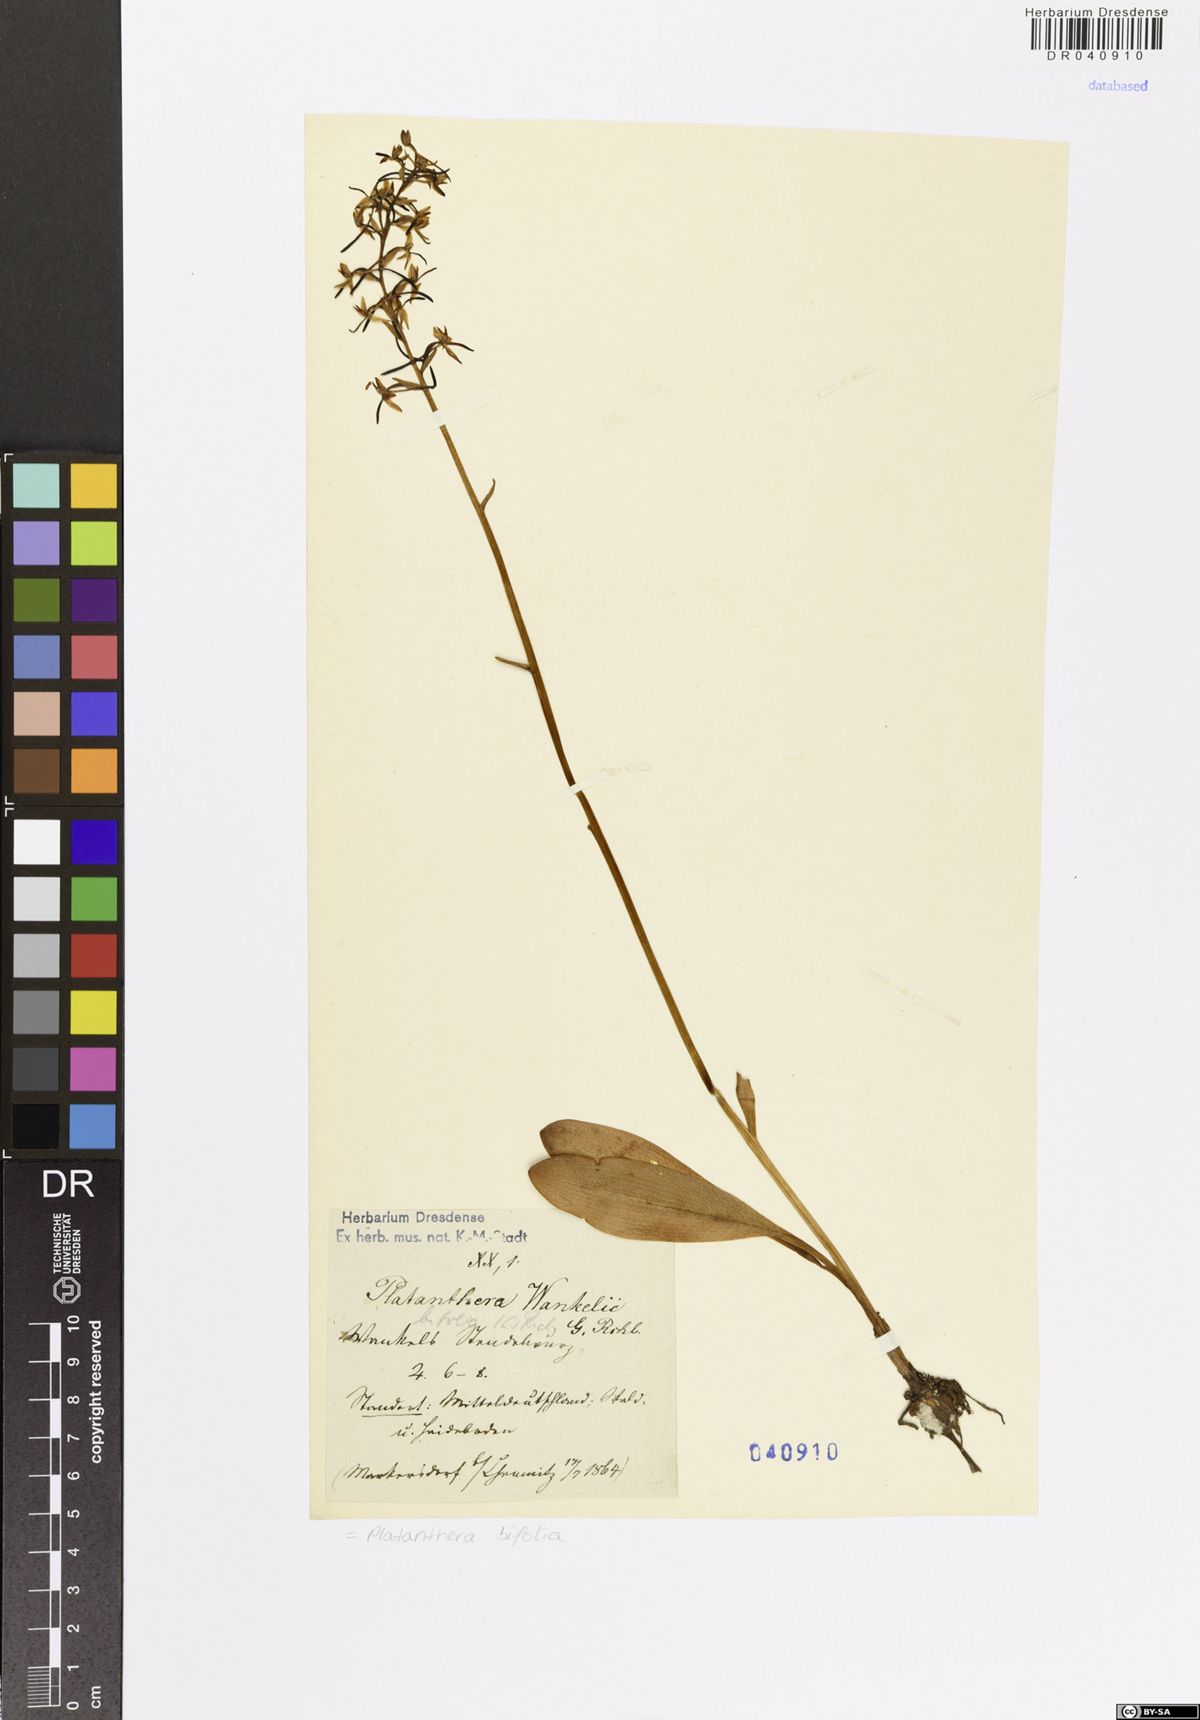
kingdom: Plantae
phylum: Tracheophyta
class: Liliopsida
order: Asparagales
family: Orchidaceae
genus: Platanthera
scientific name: Platanthera bifolia
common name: Lesser butterfly-orchid
